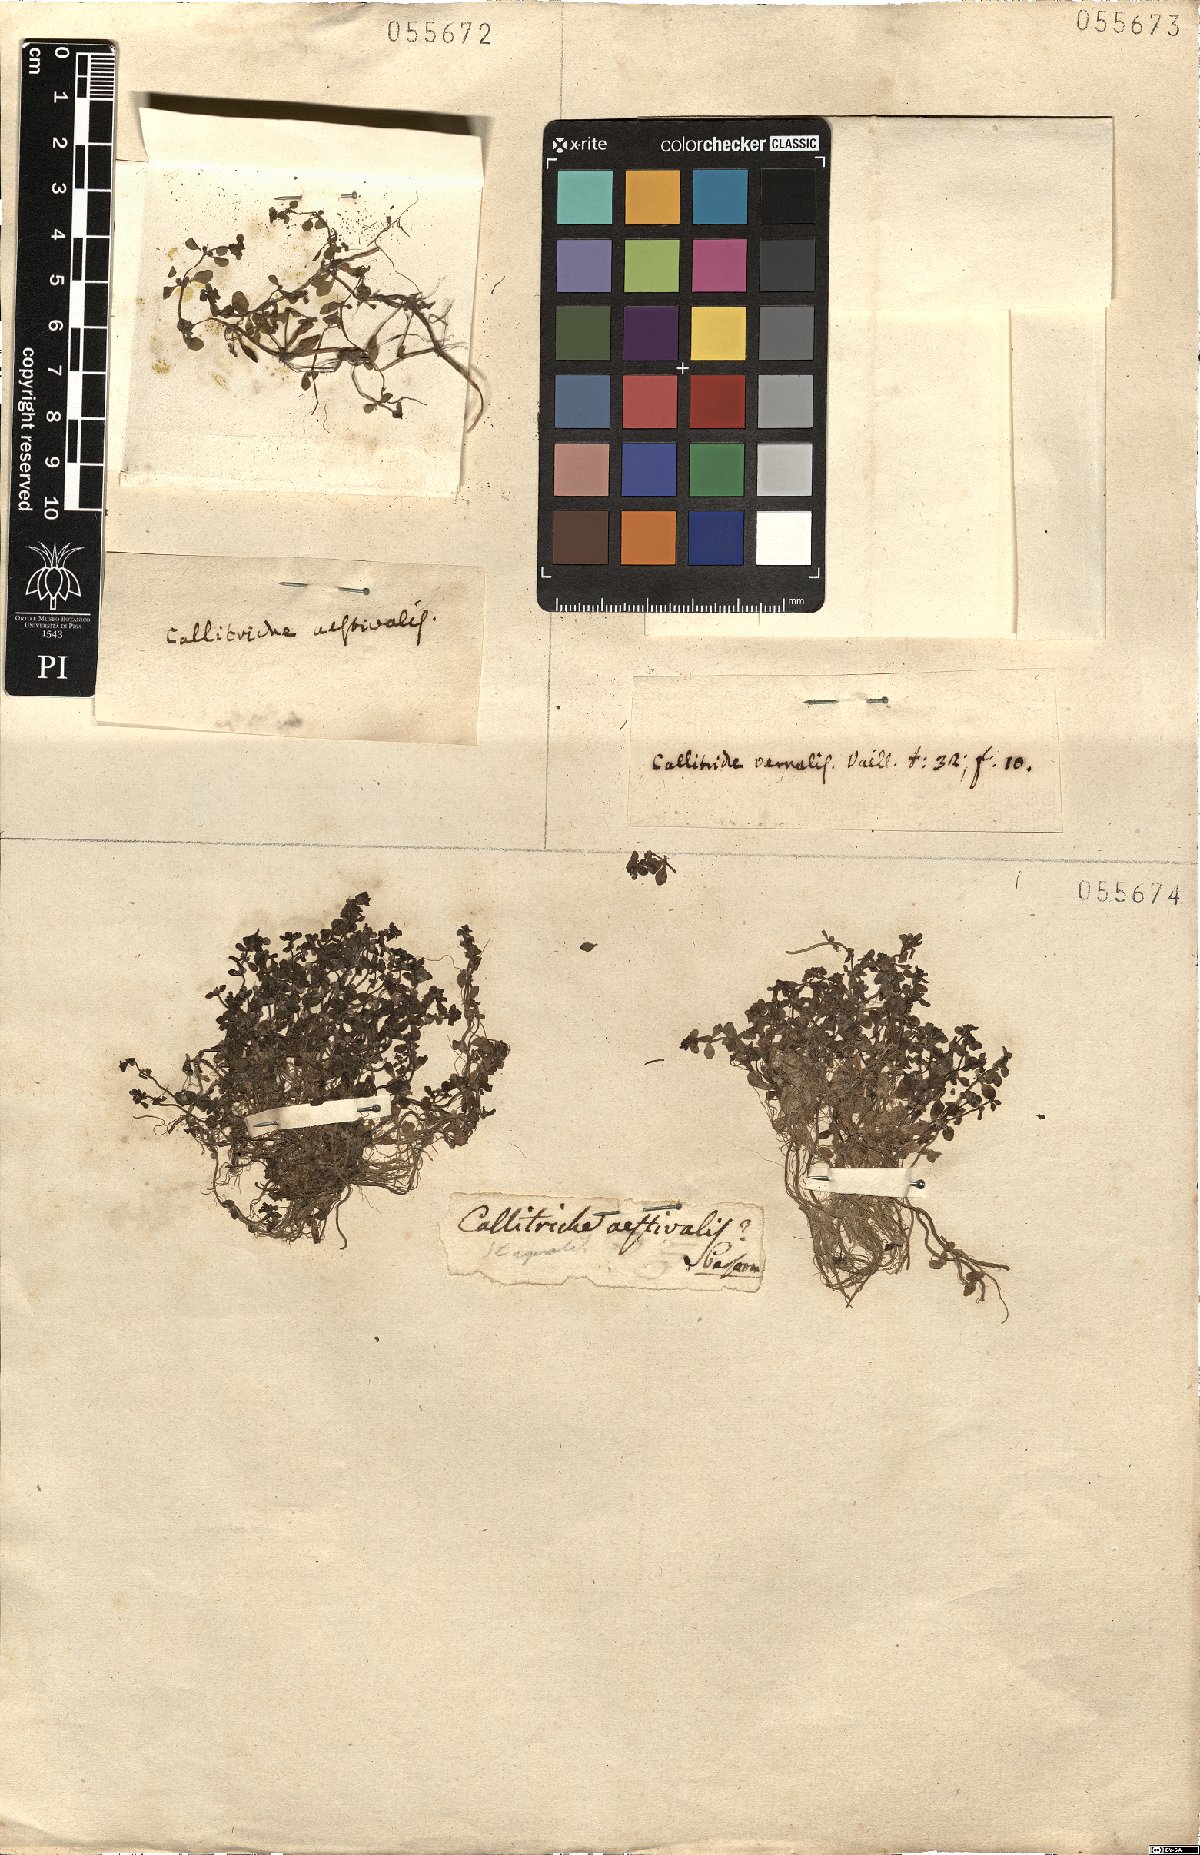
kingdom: Plantae
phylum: Tracheophyta
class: Magnoliopsida
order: Lamiales
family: Plantaginaceae
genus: Callitriche
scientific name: Callitriche stagnalis
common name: Common water-starwort
